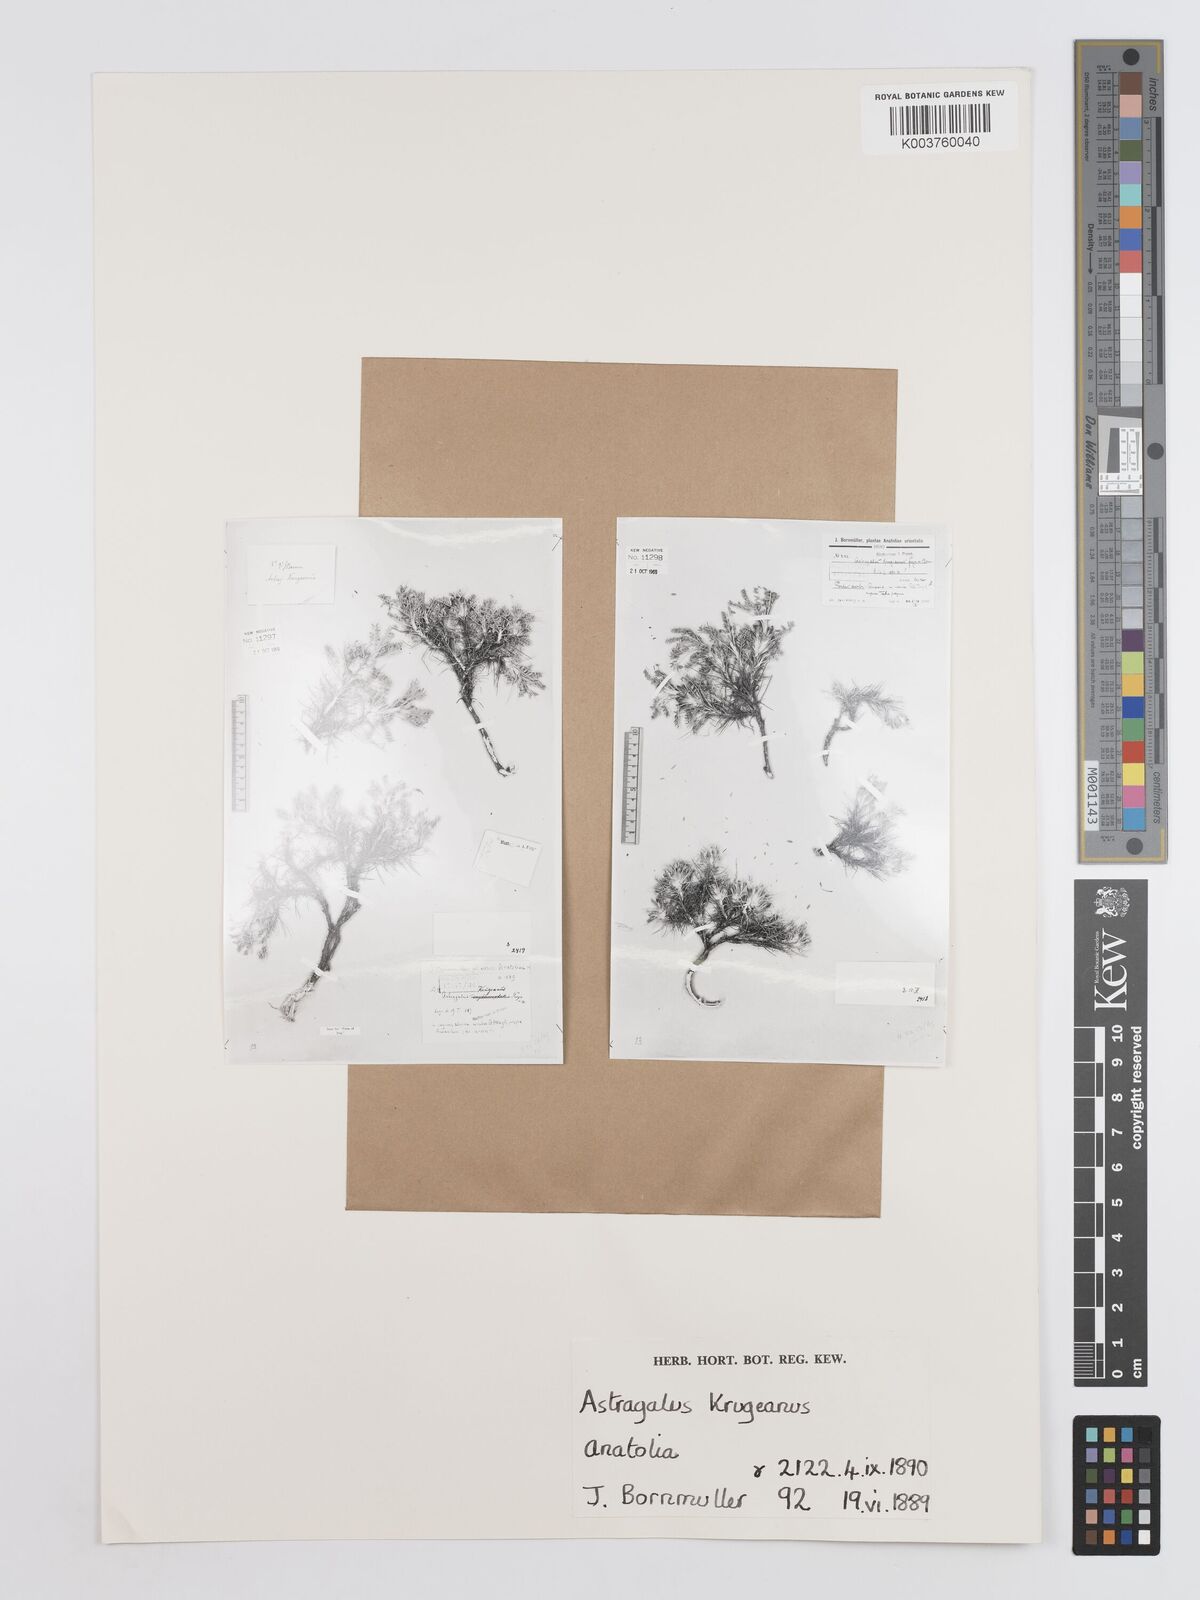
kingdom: Plantae
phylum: Tracheophyta
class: Magnoliopsida
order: Fabales
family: Fabaceae
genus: Astragalus
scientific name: Astragalus plumosus
